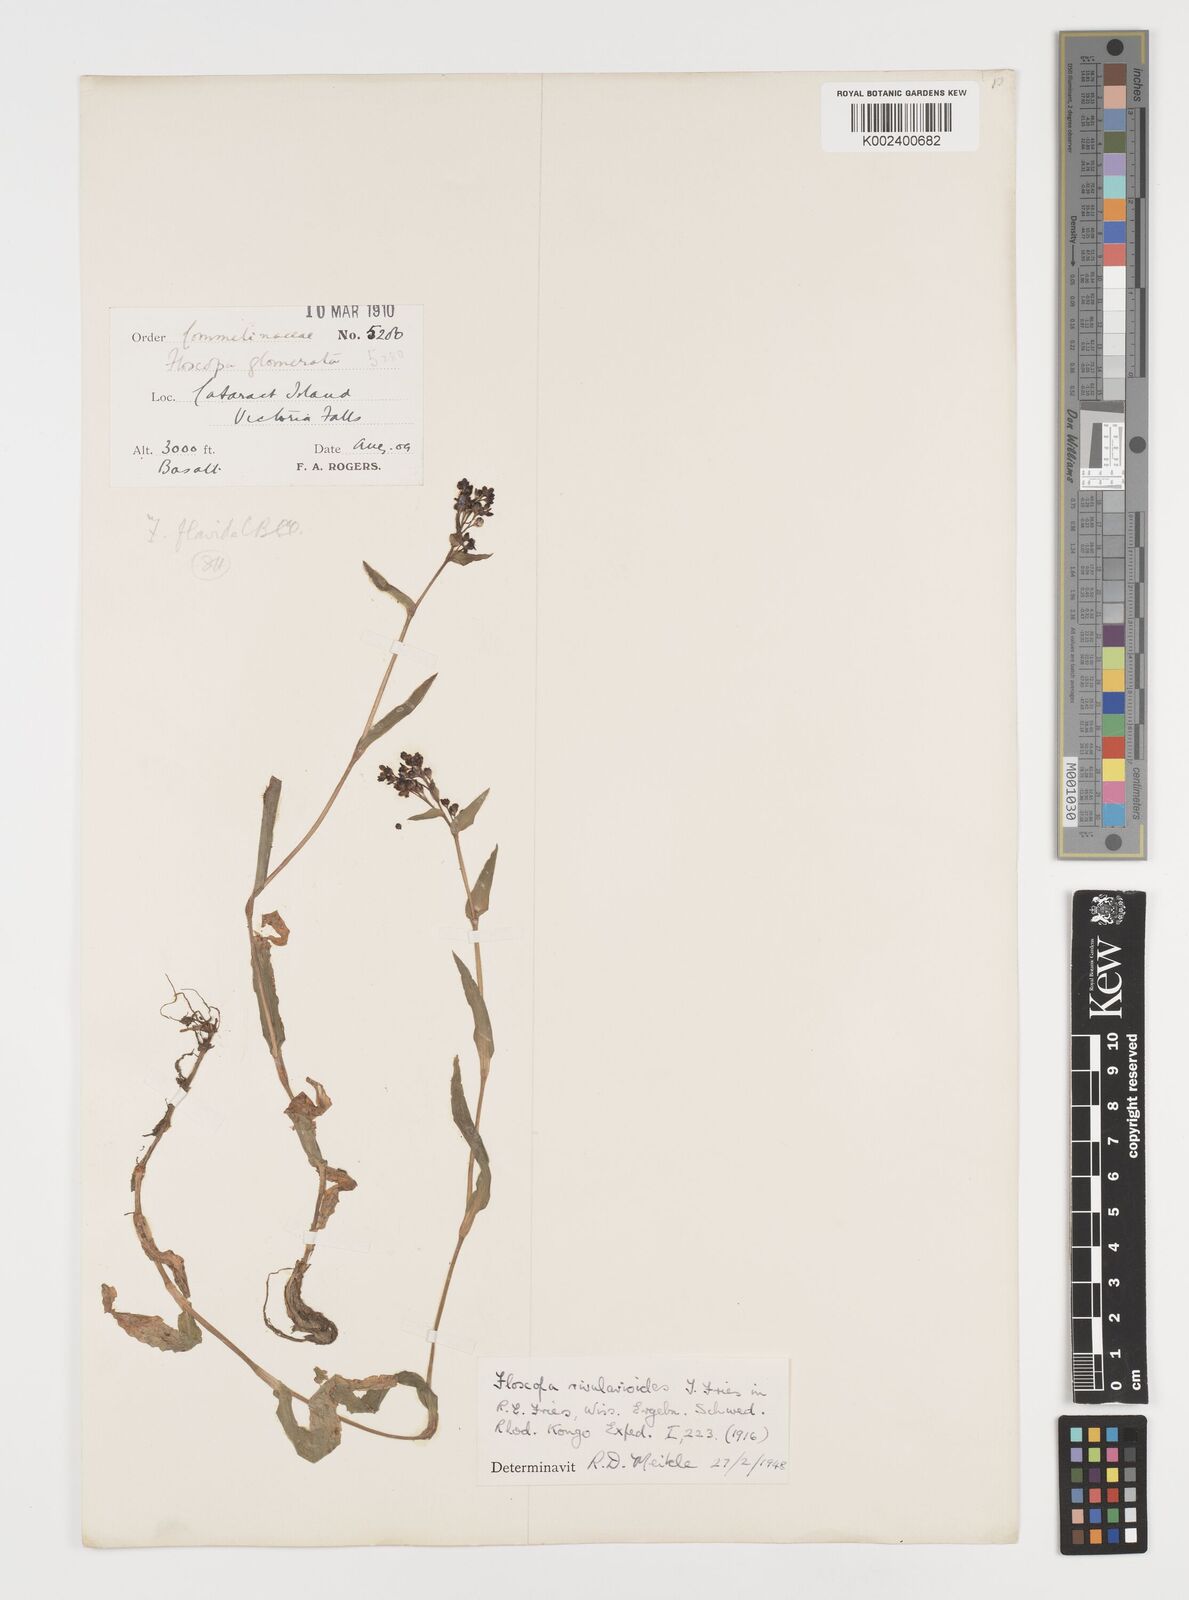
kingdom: Plantae
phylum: Tracheophyta
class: Liliopsida
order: Commelinales
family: Commelinaceae
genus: Floscopa
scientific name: Floscopa rivularioides
